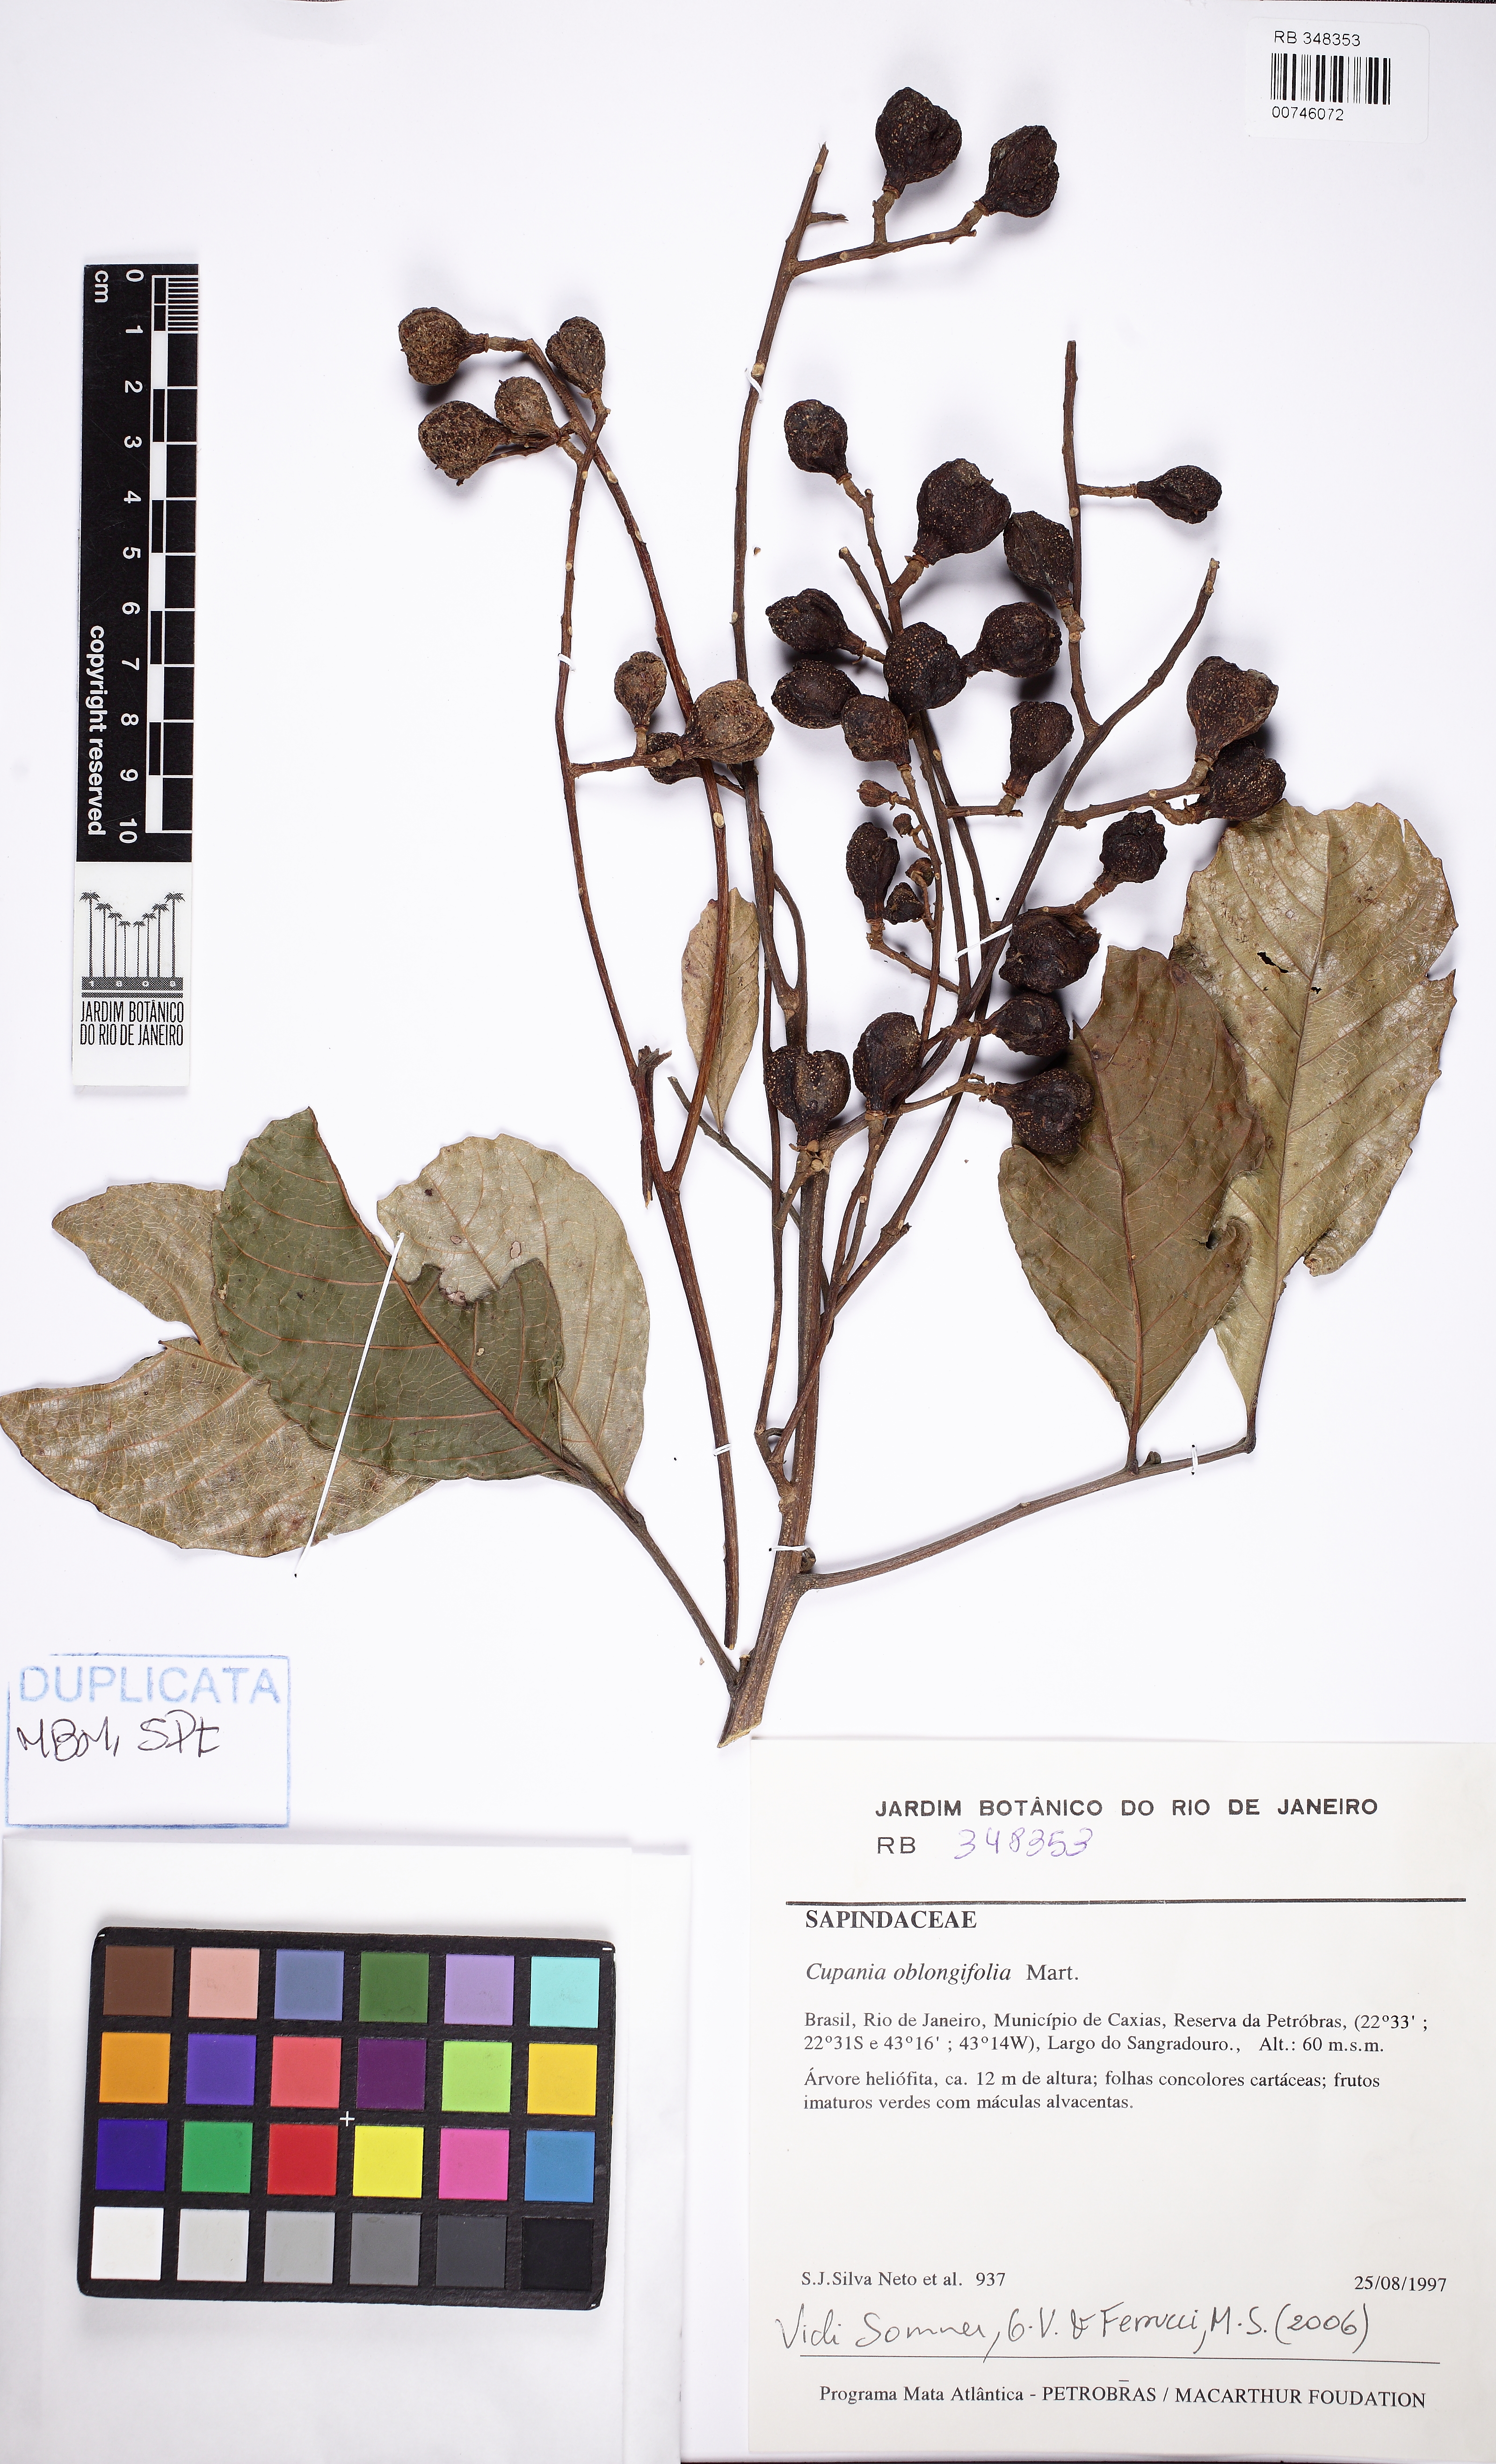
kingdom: Plantae
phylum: Tracheophyta
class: Magnoliopsida
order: Sapindales
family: Sapindaceae
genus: Cupania
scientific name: Cupania oblongifolia
